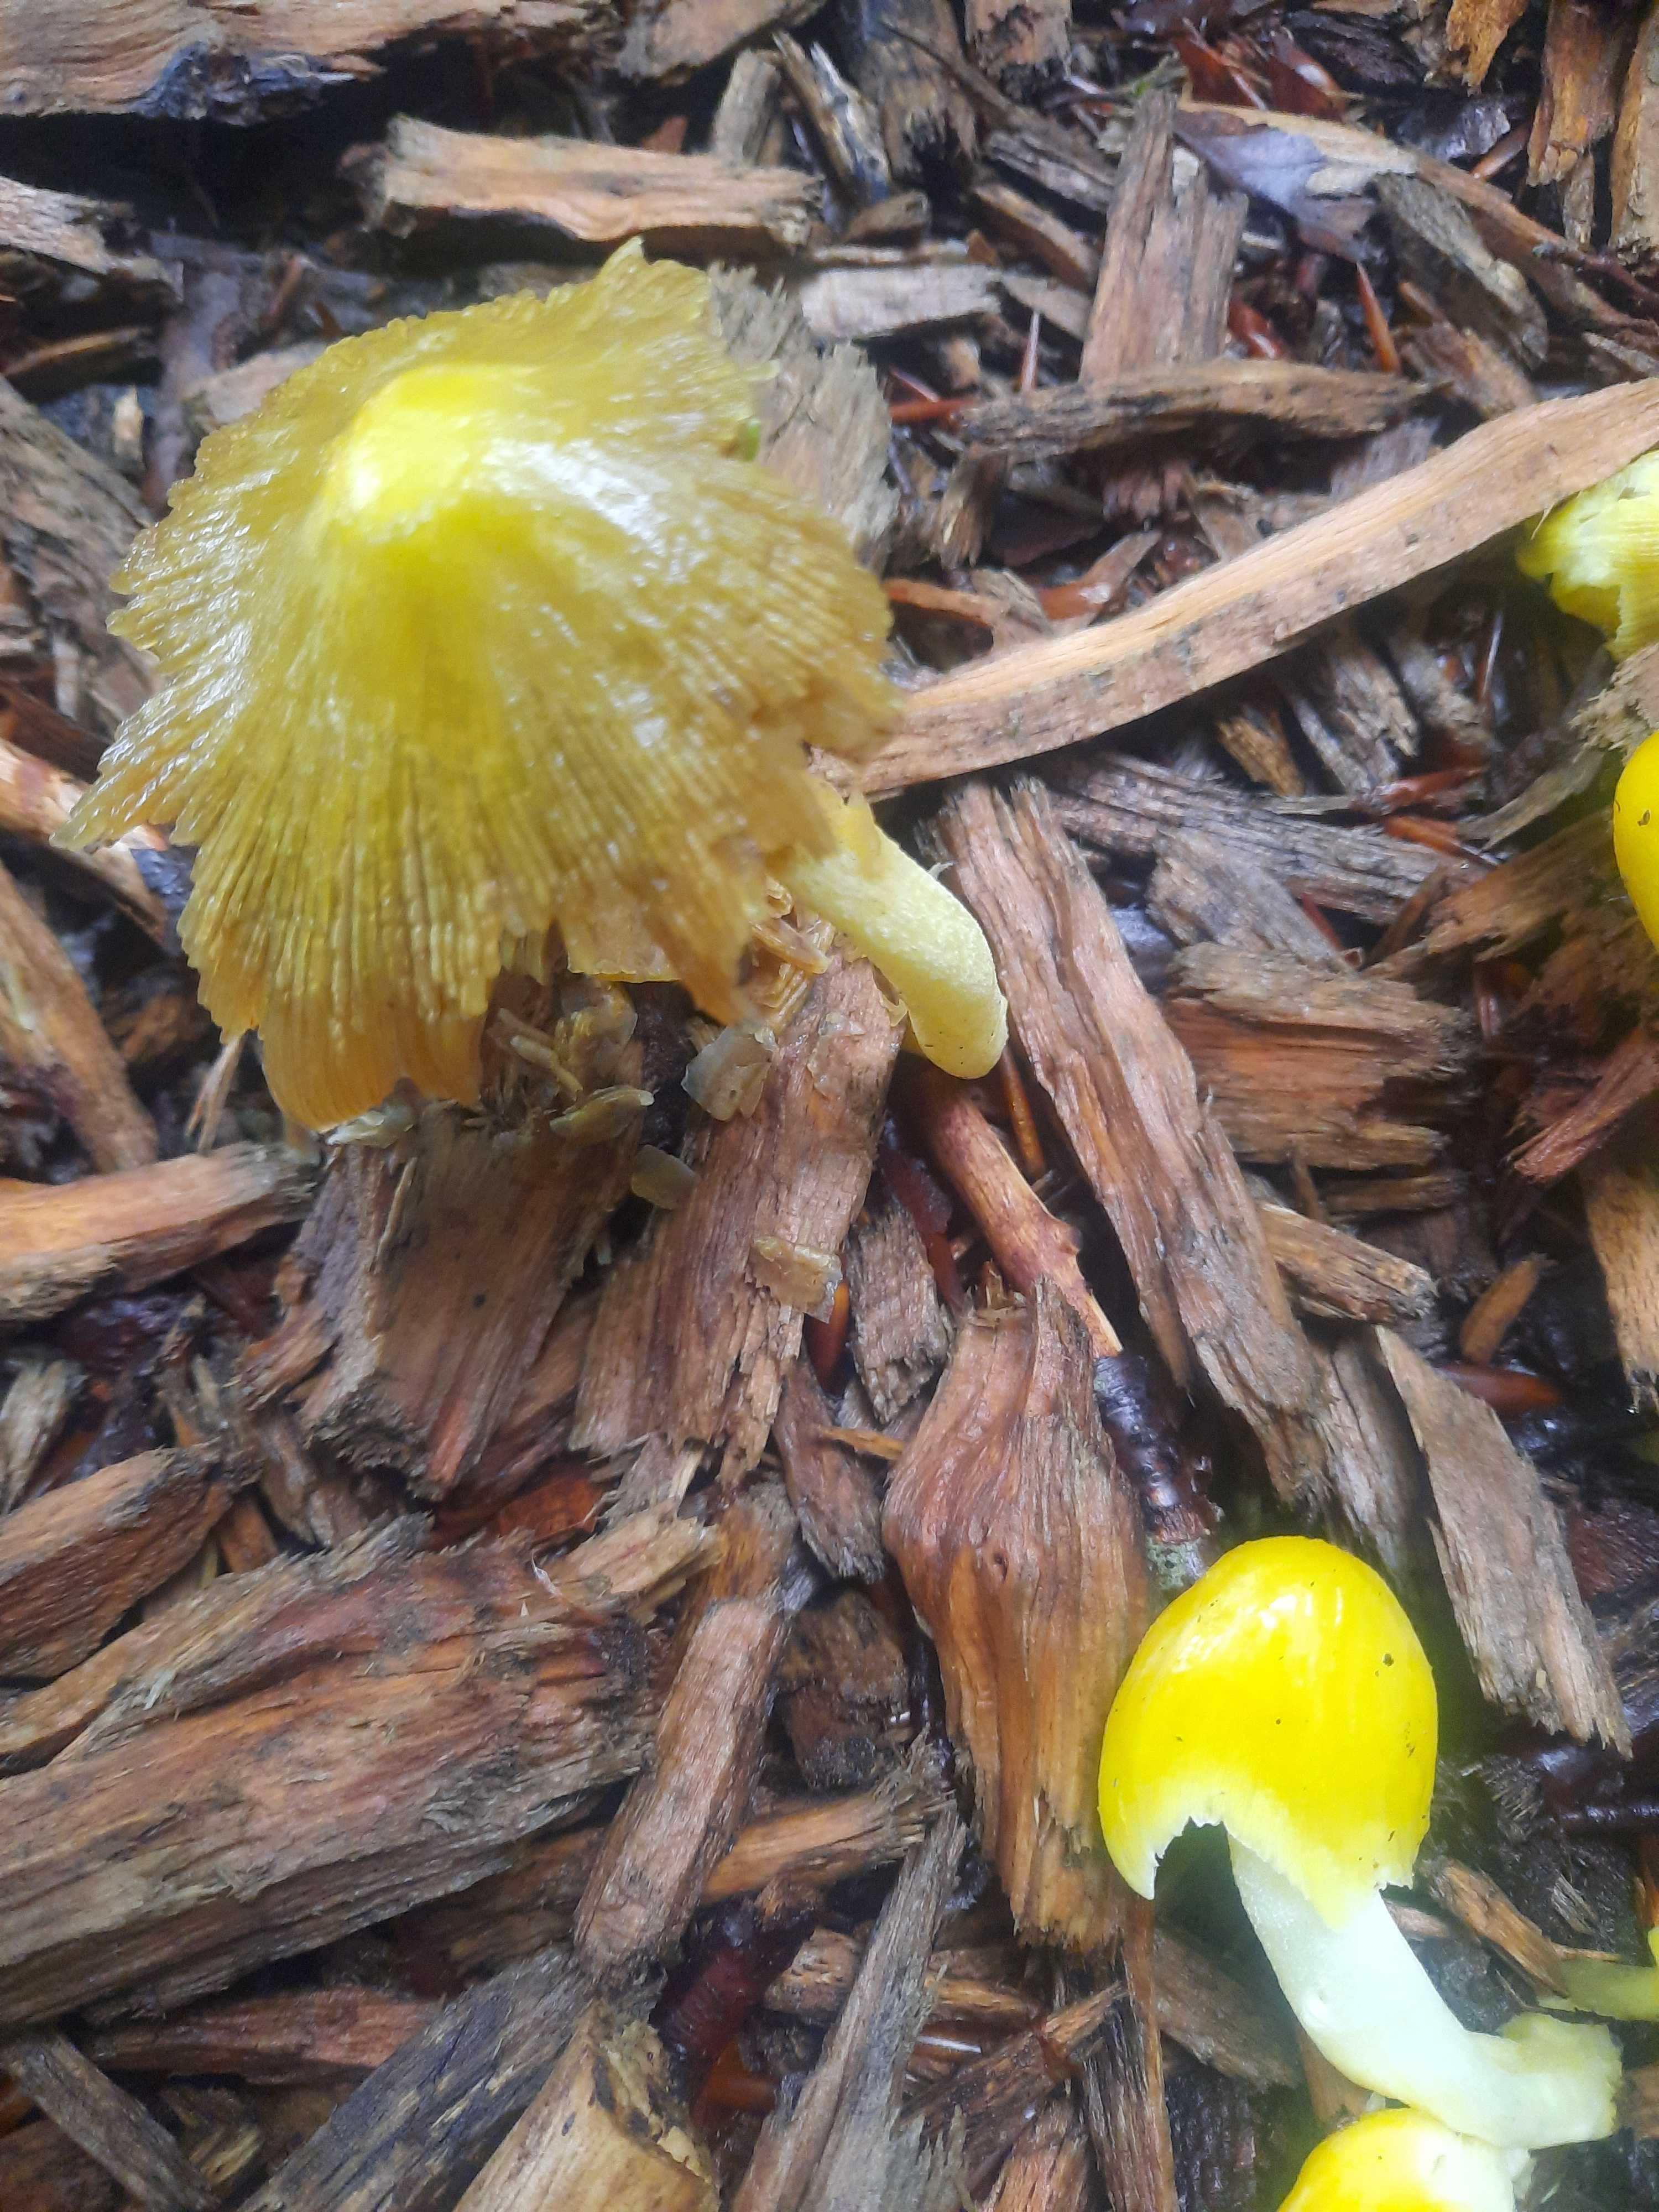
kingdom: Fungi
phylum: Basidiomycota
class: Agaricomycetes
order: Agaricales
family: Bolbitiaceae
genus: Bolbitius
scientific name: Bolbitius titubans
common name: almindelig gulhat
